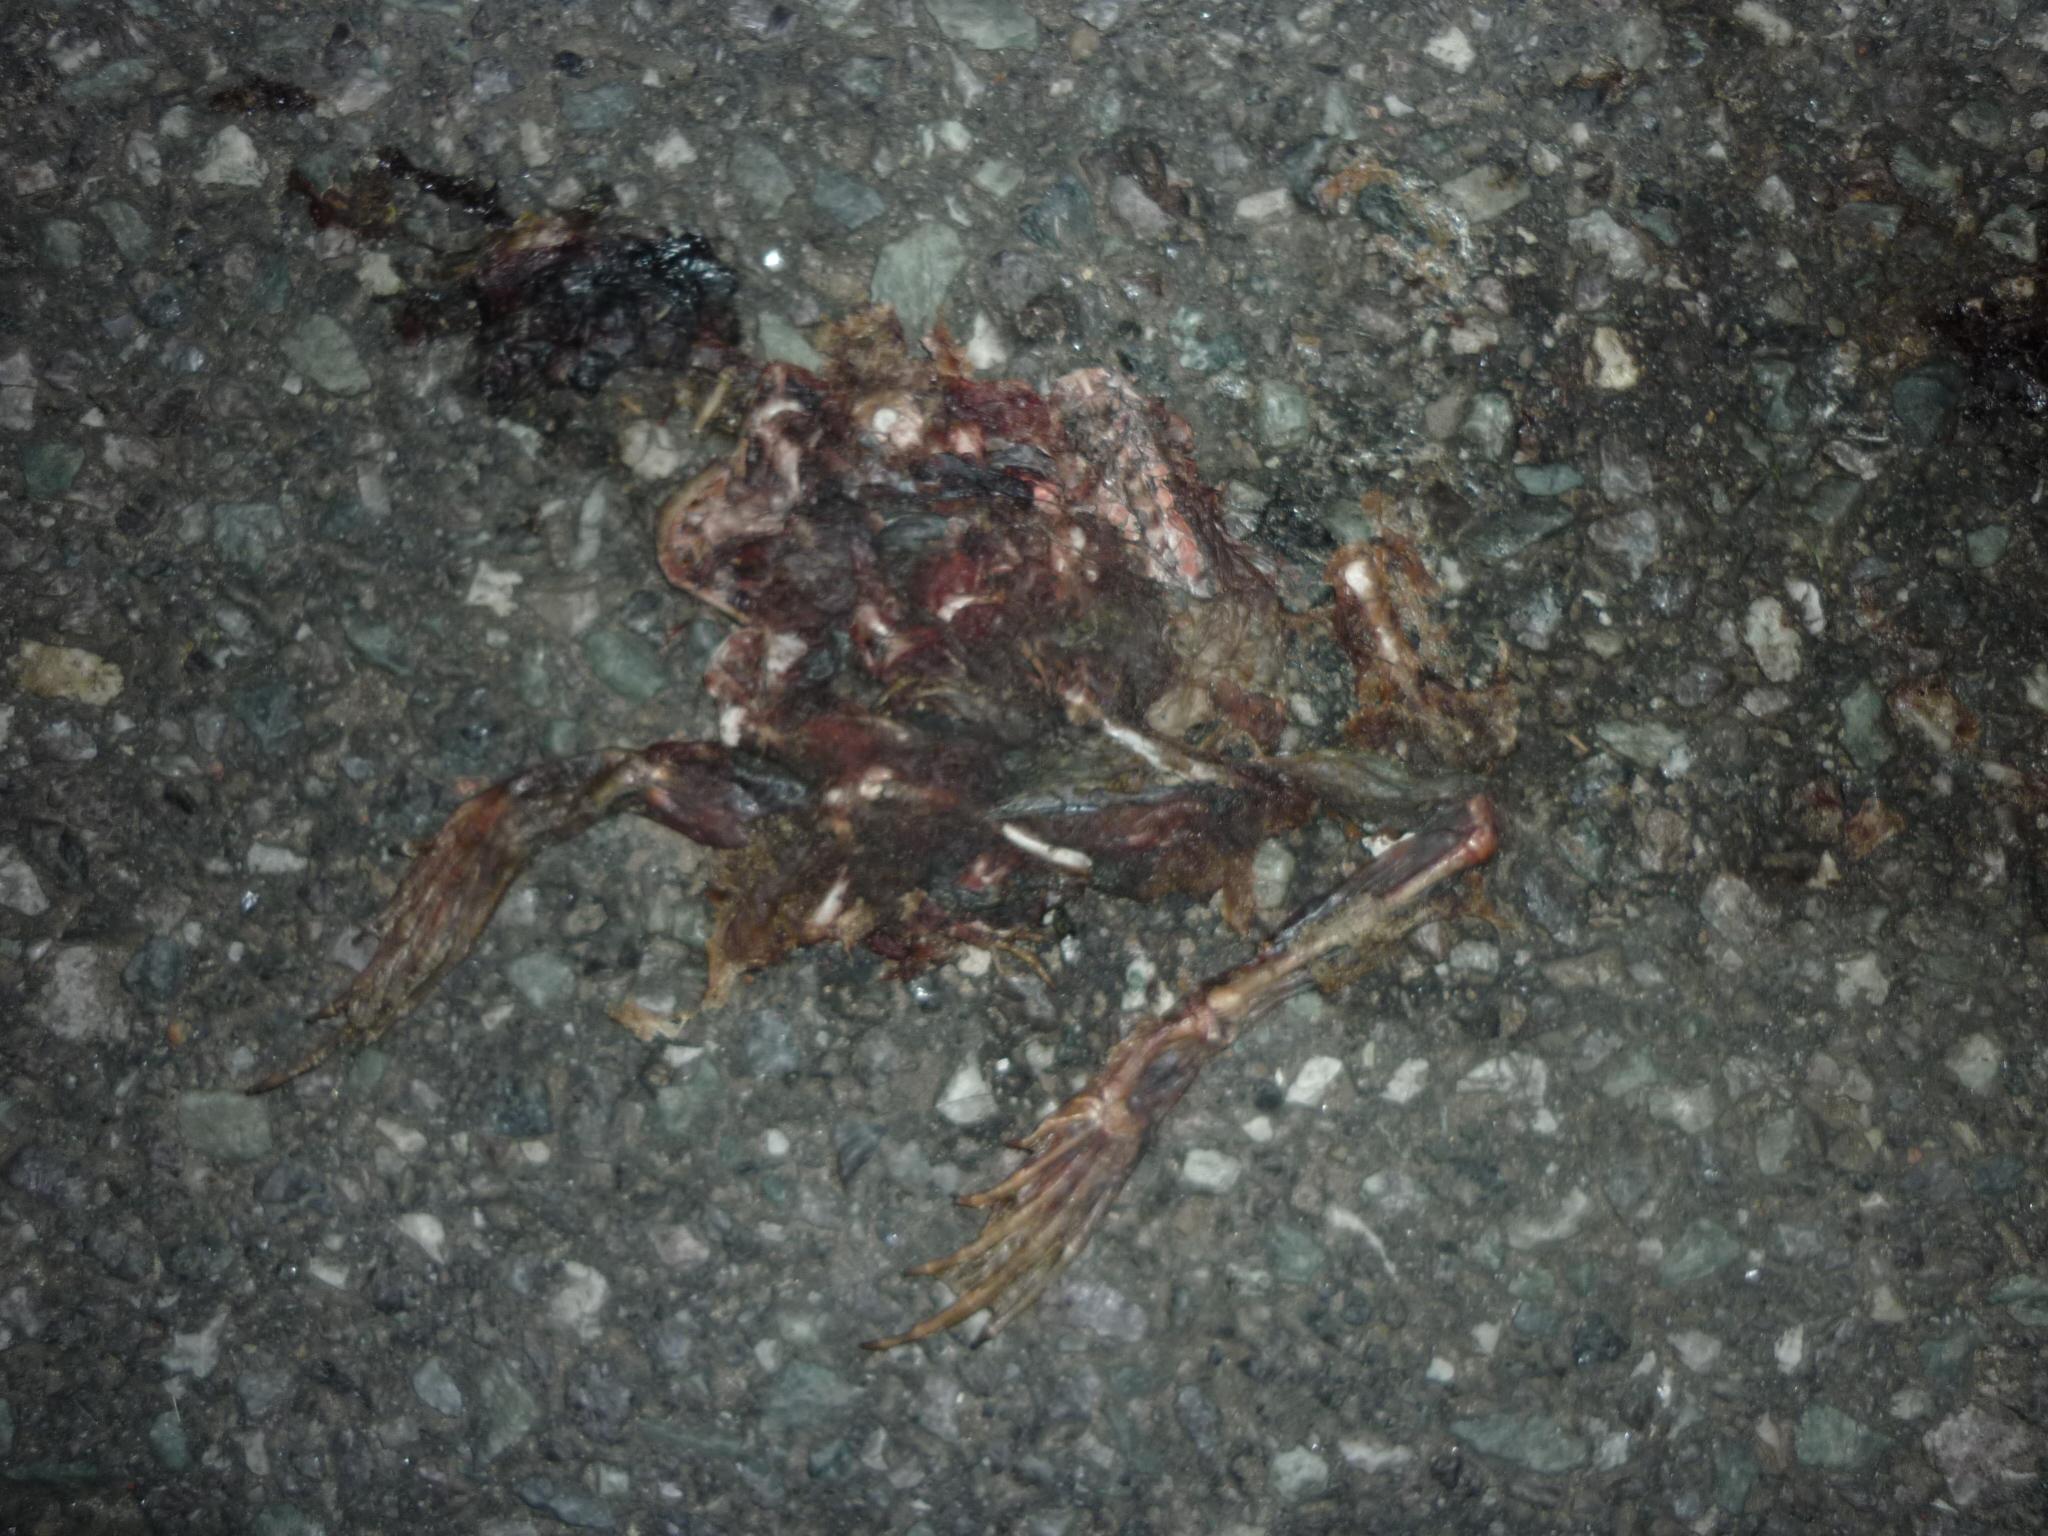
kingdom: Animalia
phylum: Chordata
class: Amphibia
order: Anura
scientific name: Anura
